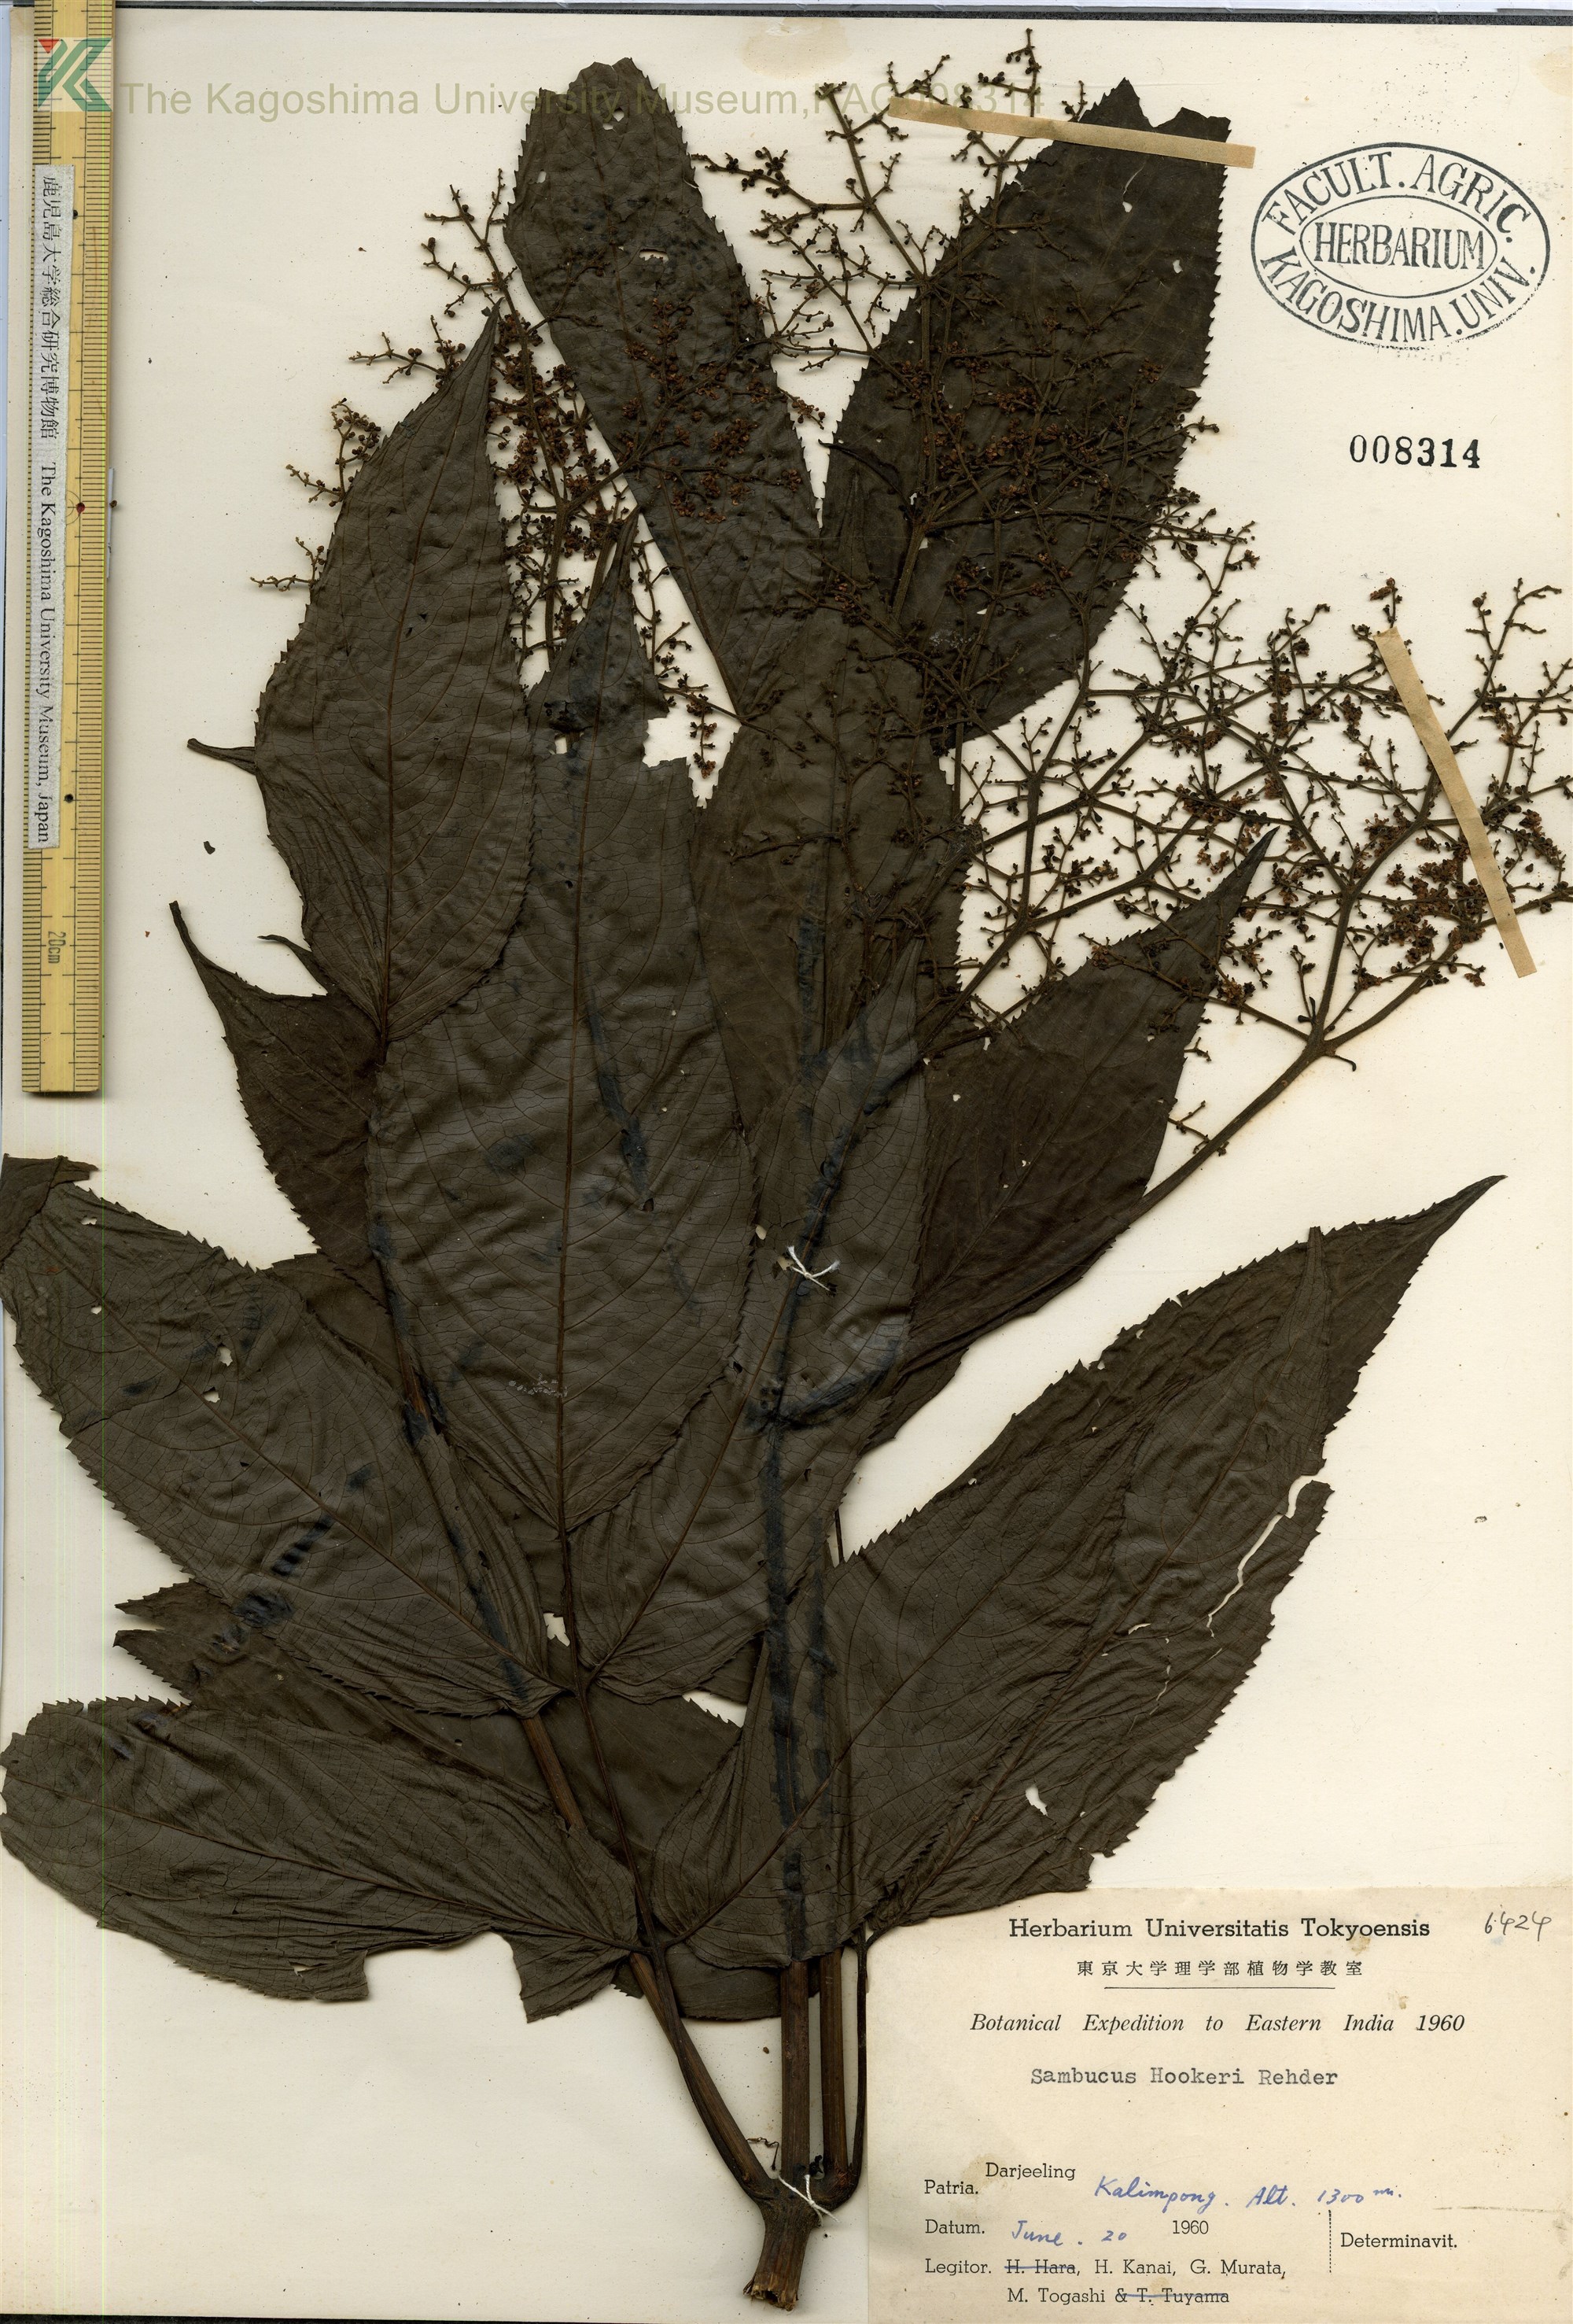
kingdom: Plantae
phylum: Tracheophyta
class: Magnoliopsida
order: Dipsacales
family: Viburnaceae
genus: Sambucus
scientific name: Sambucus javanica
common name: Chinese elder
